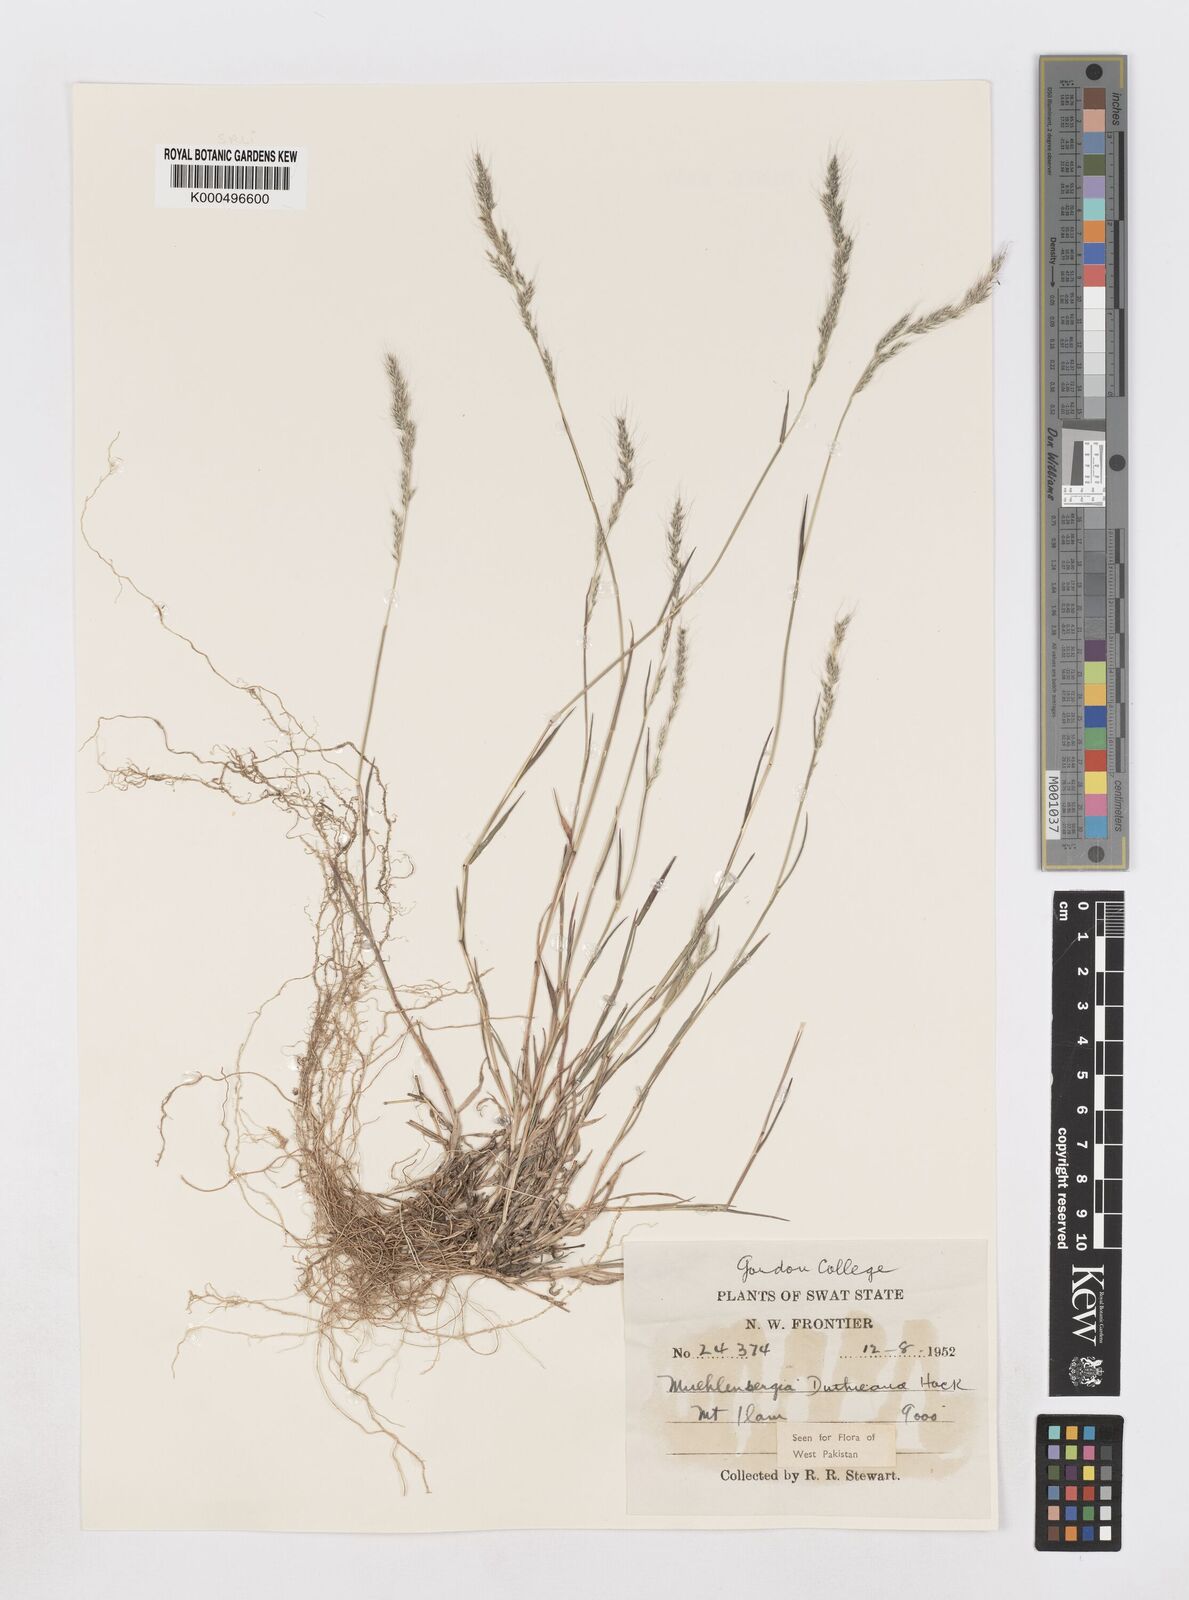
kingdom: Plantae
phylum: Tracheophyta
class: Liliopsida
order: Poales
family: Poaceae
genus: Muhlenbergia
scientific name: Muhlenbergia duthieana
